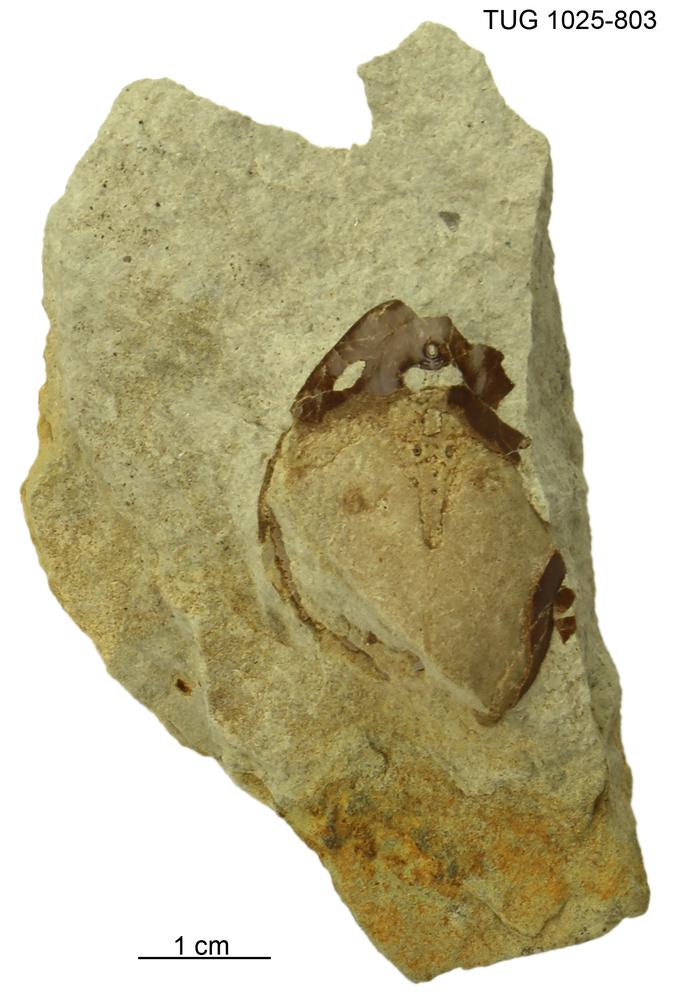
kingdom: Animalia
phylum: Chordata
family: Tremataspididae
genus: Tremataspis
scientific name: Tremataspis
